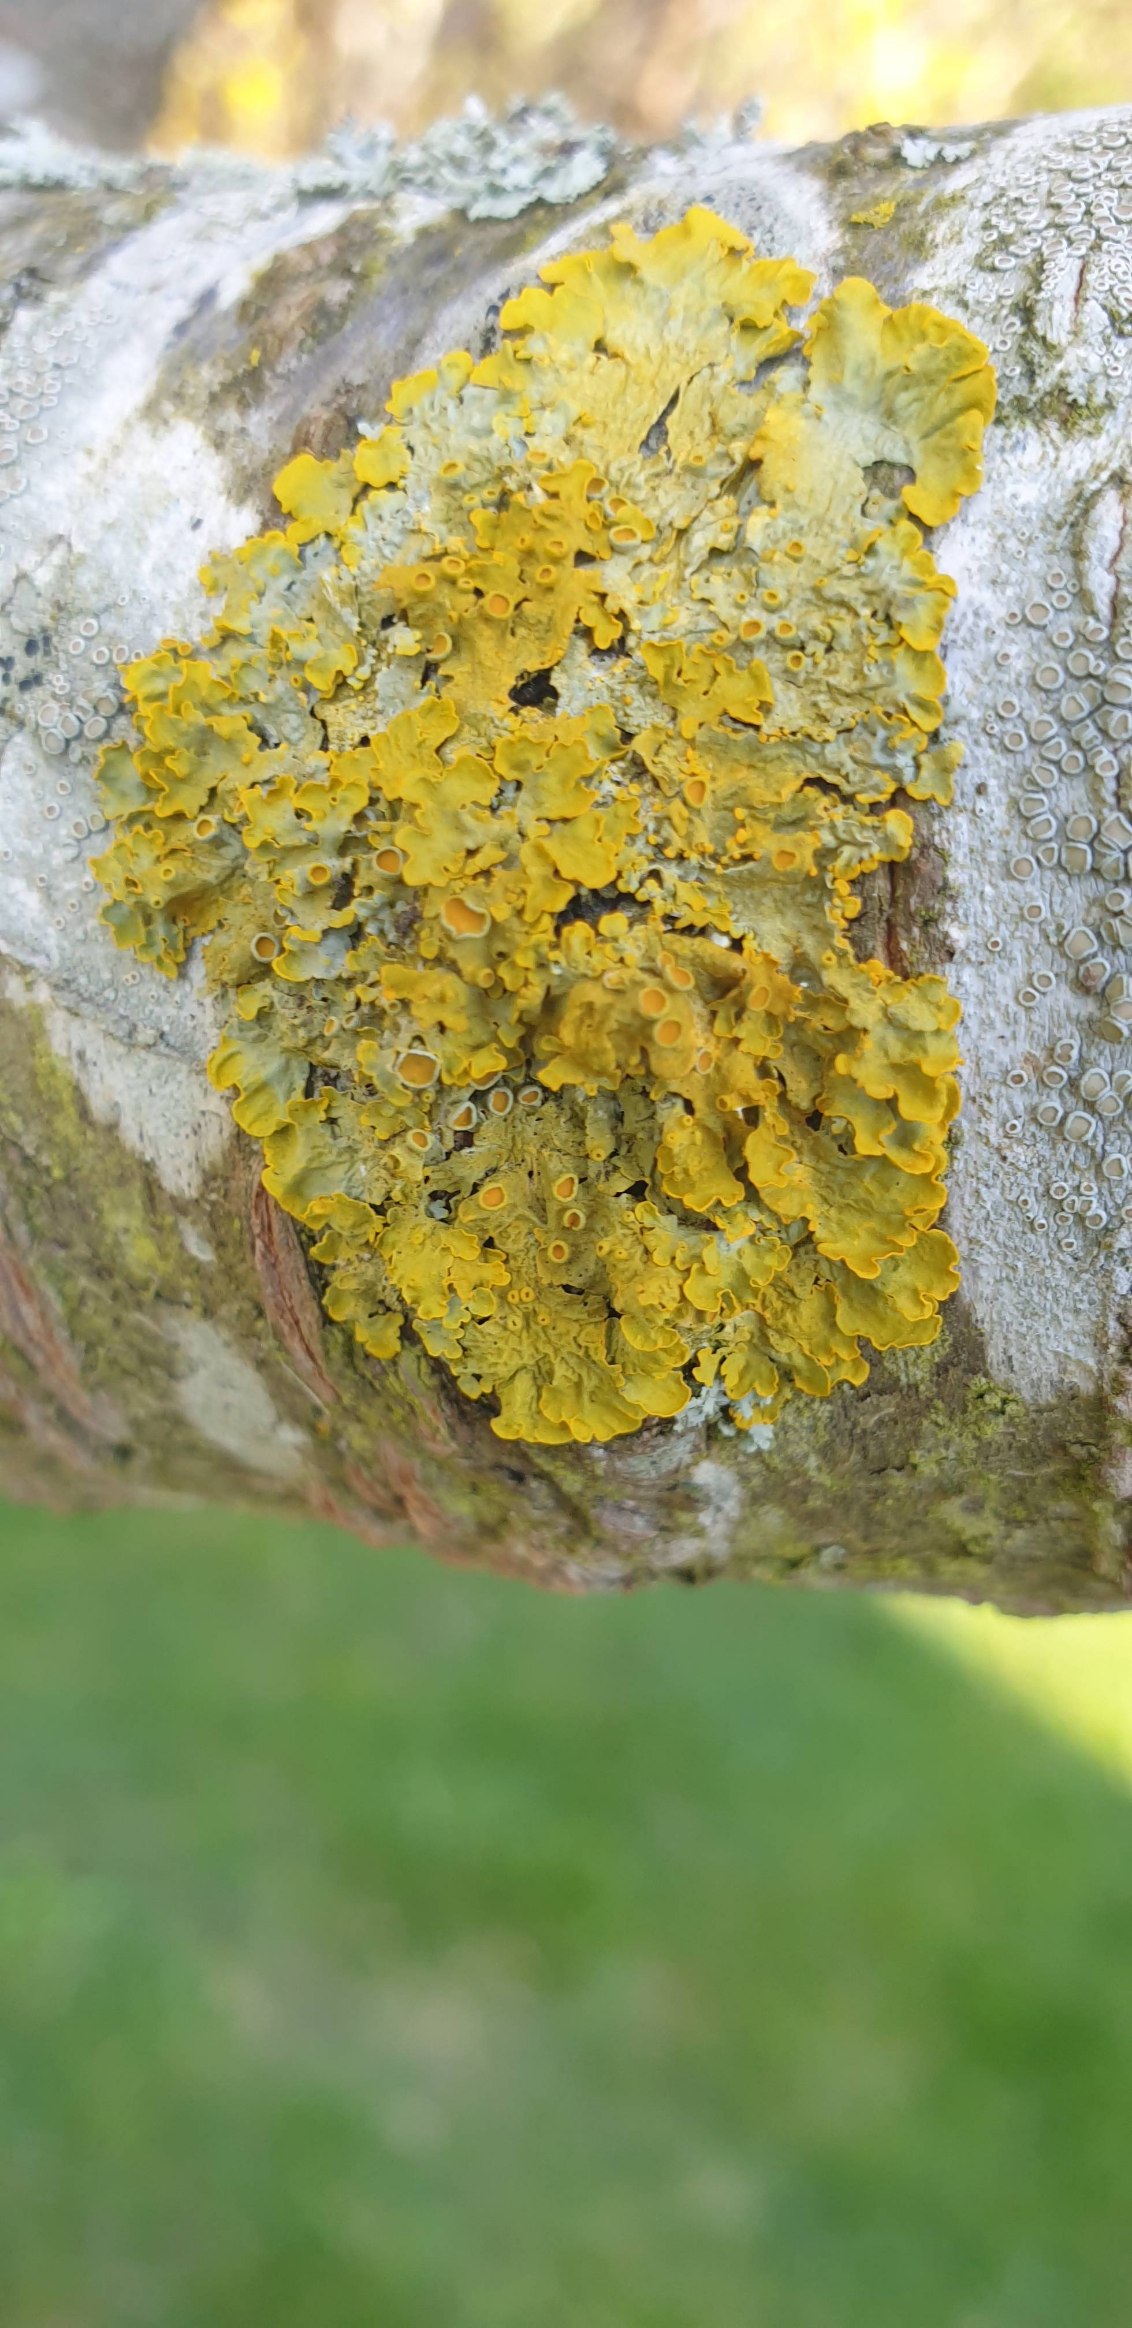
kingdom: Fungi
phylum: Ascomycota
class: Lecanoromycetes
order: Teloschistales
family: Teloschistaceae
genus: Xanthoria
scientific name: Xanthoria parietina
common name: Almindelig væggelav
